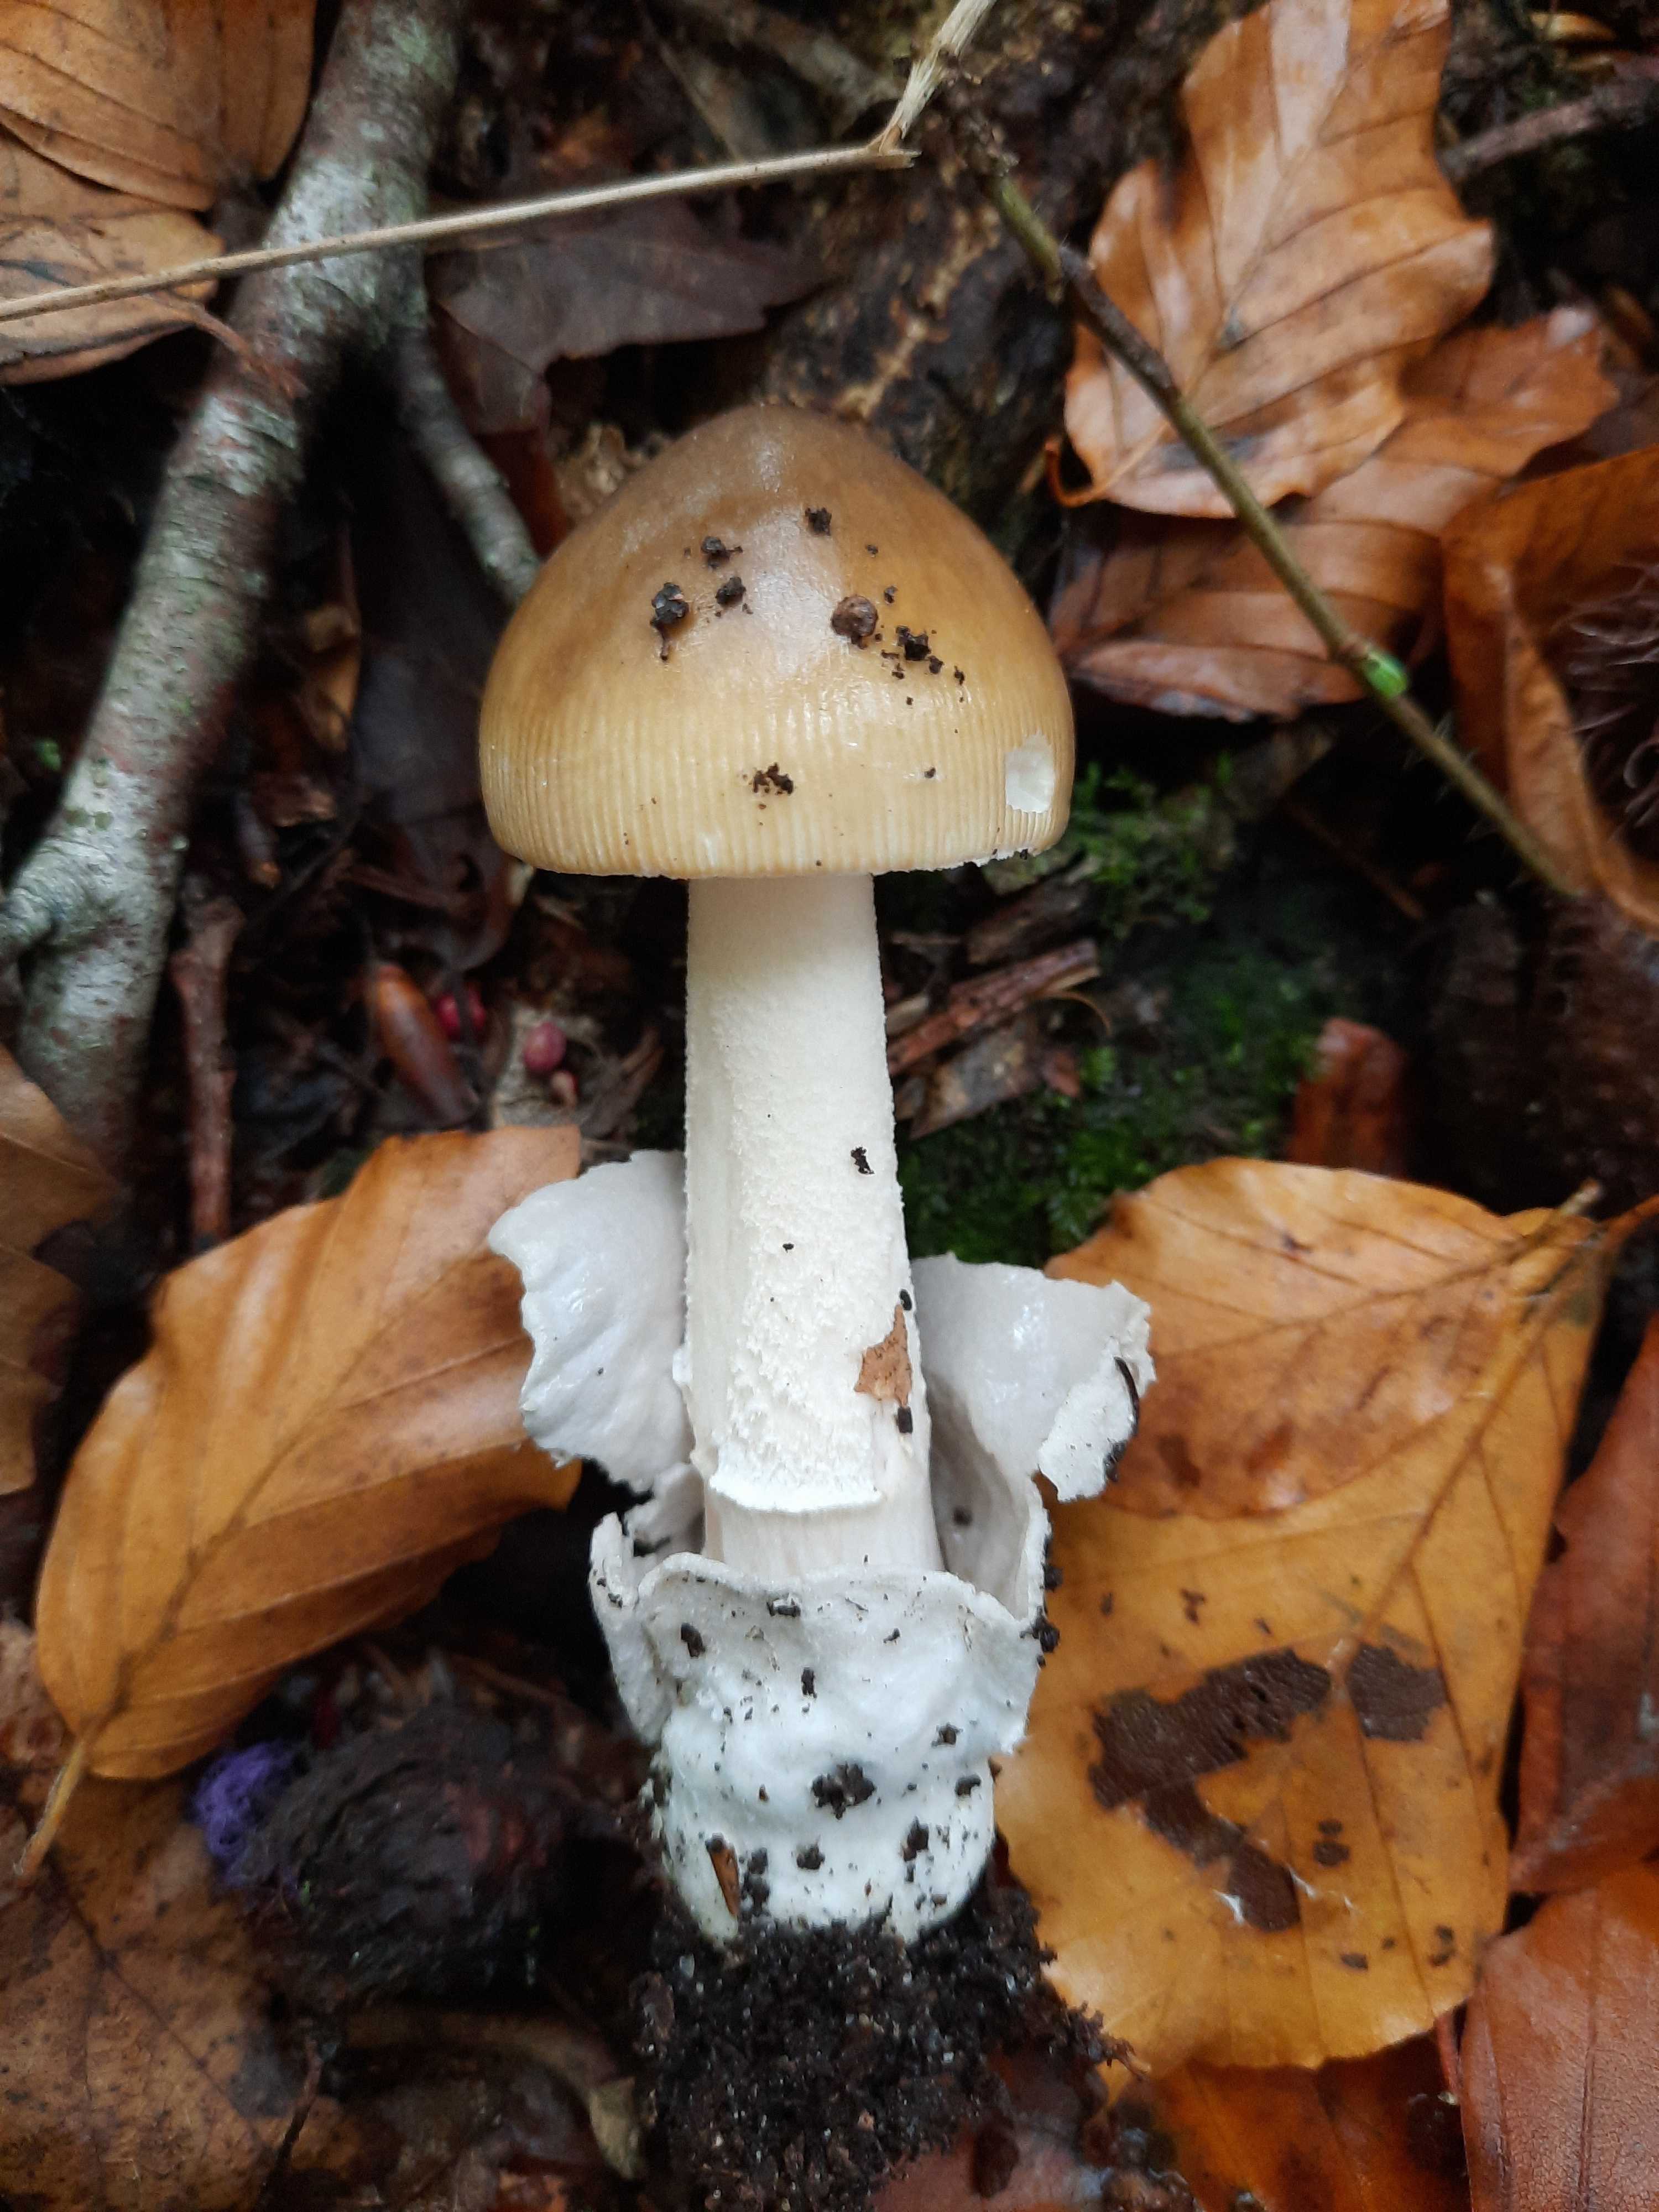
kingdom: Fungi
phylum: Basidiomycota
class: Agaricomycetes
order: Agaricales
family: Amanitaceae
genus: Amanita
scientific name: Amanita submembranacea
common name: gråspættet kam-fluesvamp
